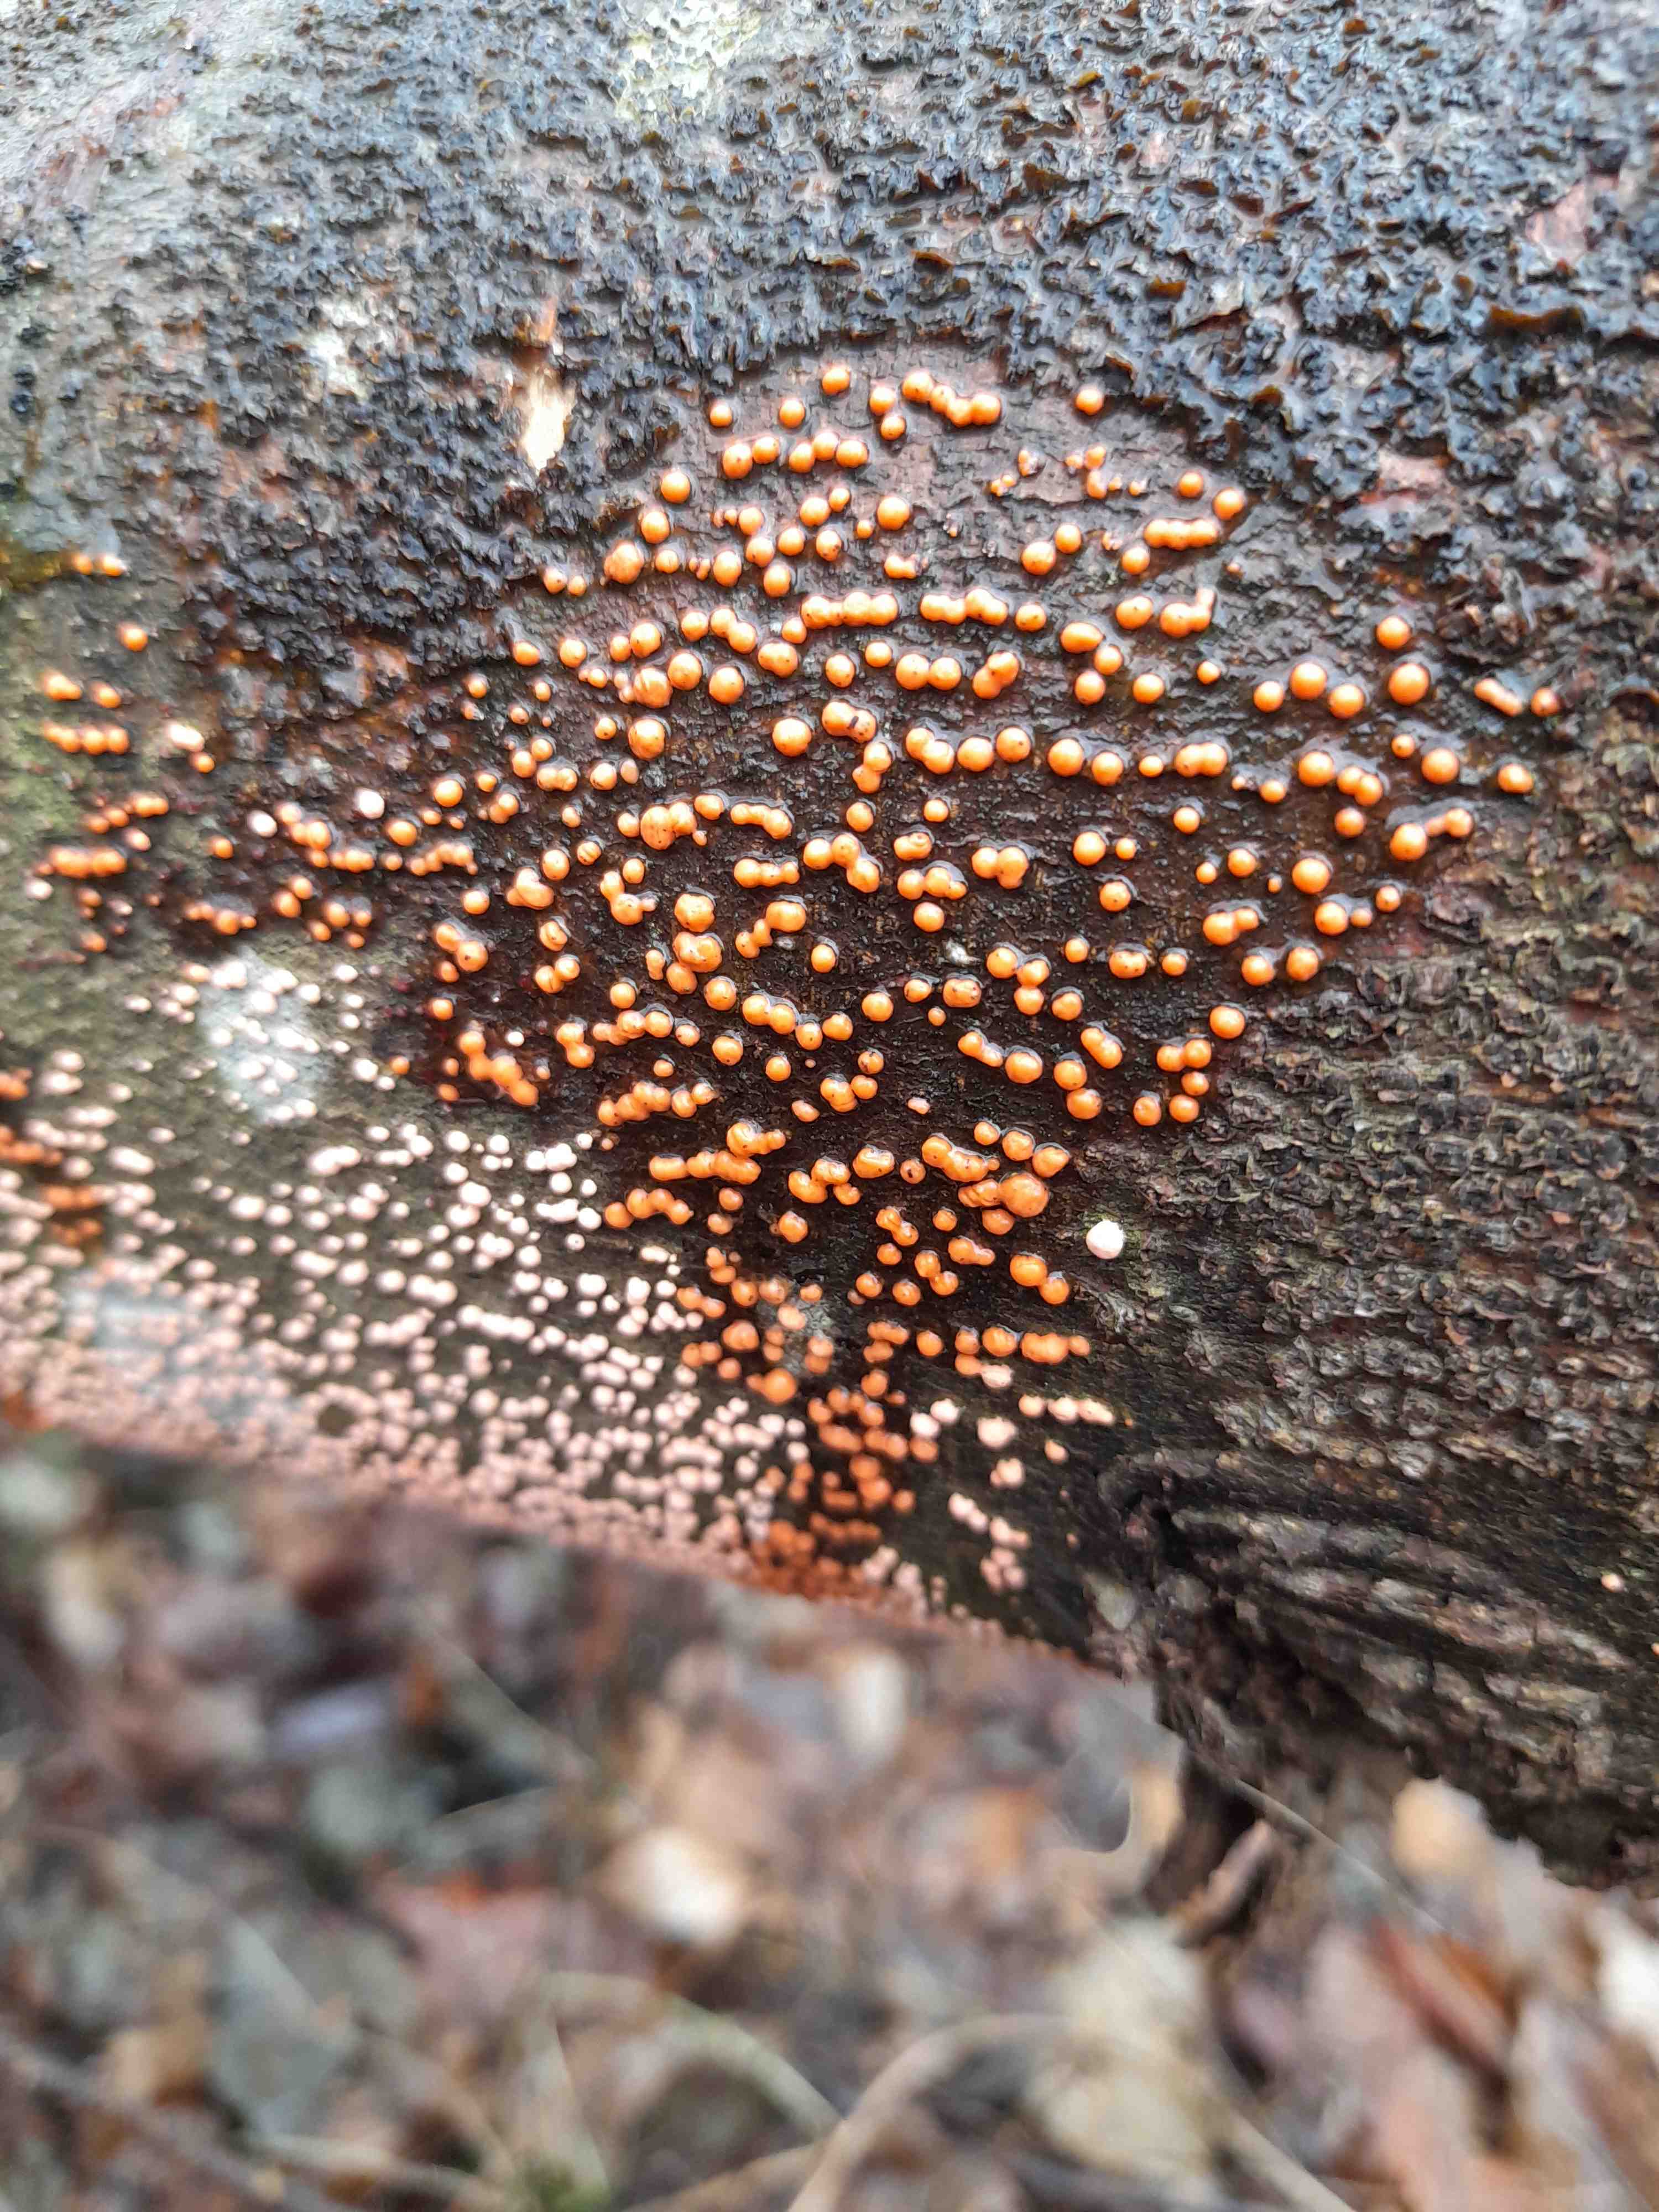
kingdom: Fungi
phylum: Ascomycota
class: Sordariomycetes
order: Hypocreales
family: Nectriaceae
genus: Nectria
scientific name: Nectria cinnabarina
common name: almindelig cinnobersvamp
